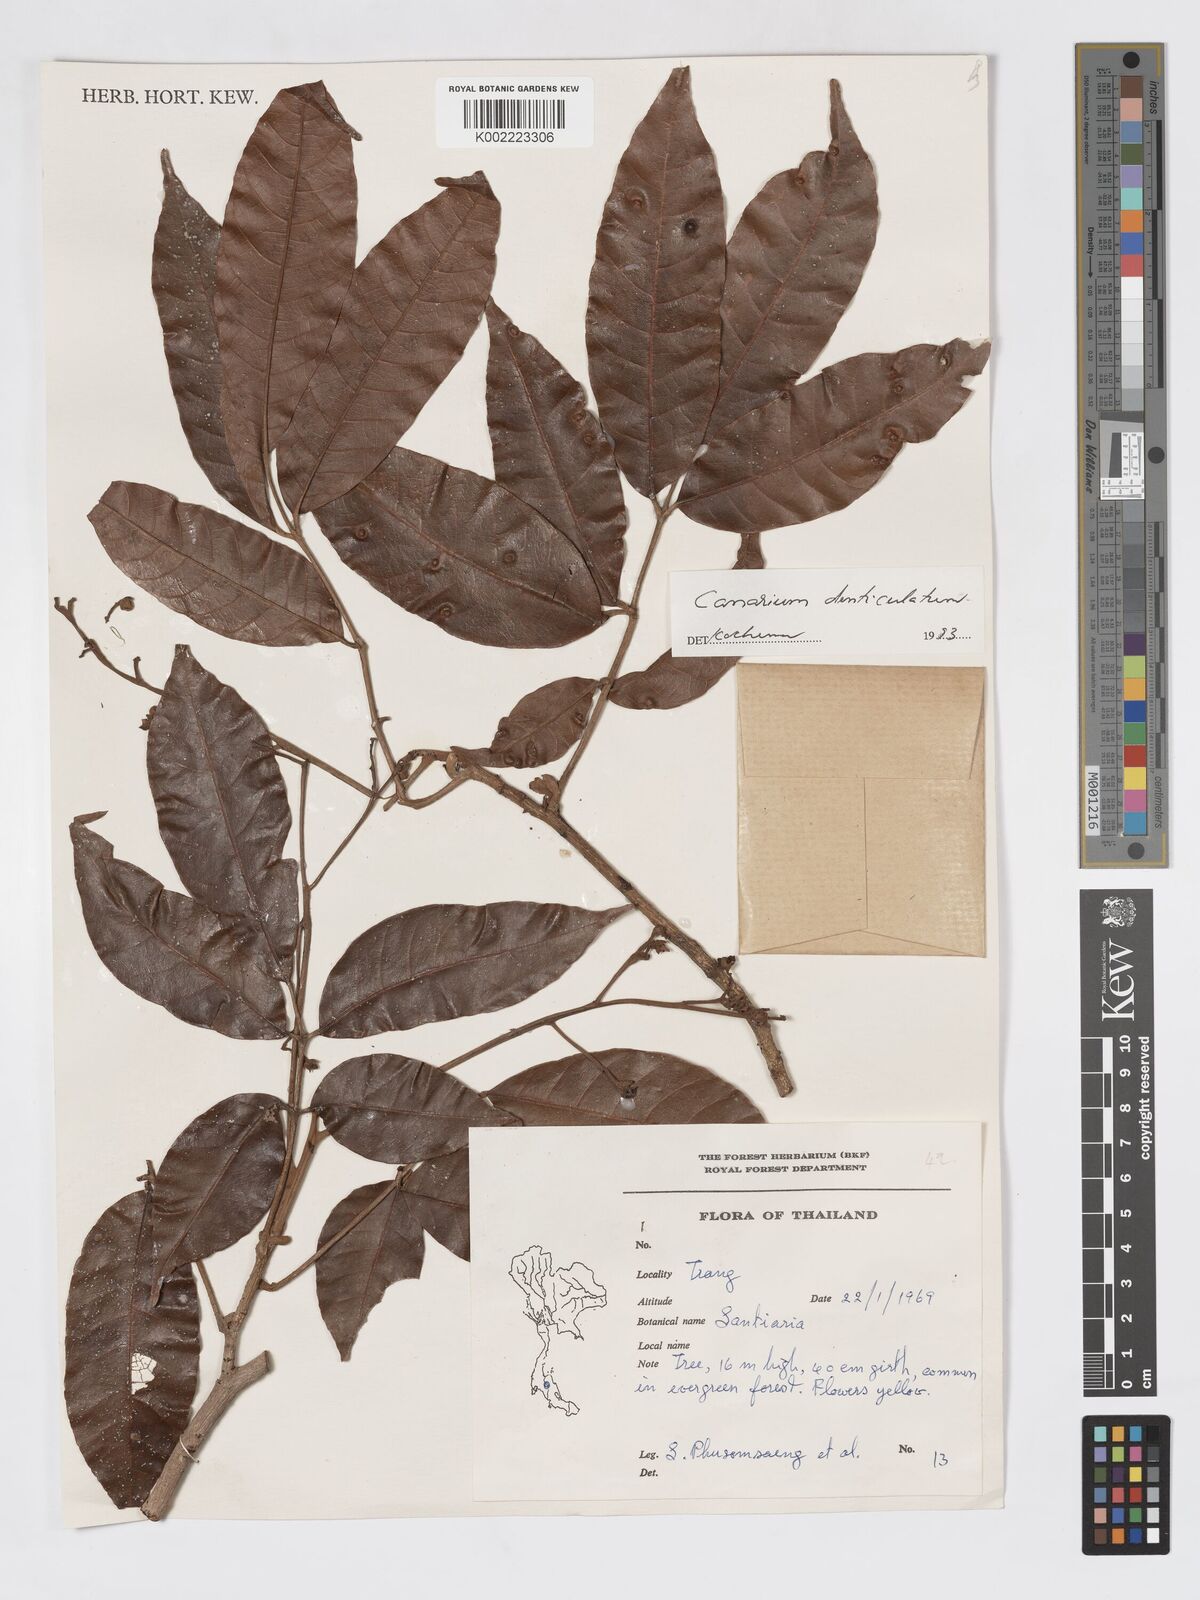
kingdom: Plantae
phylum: Tracheophyta
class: Magnoliopsida
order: Sapindales
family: Burseraceae
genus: Canarium
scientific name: Canarium denticulatum
